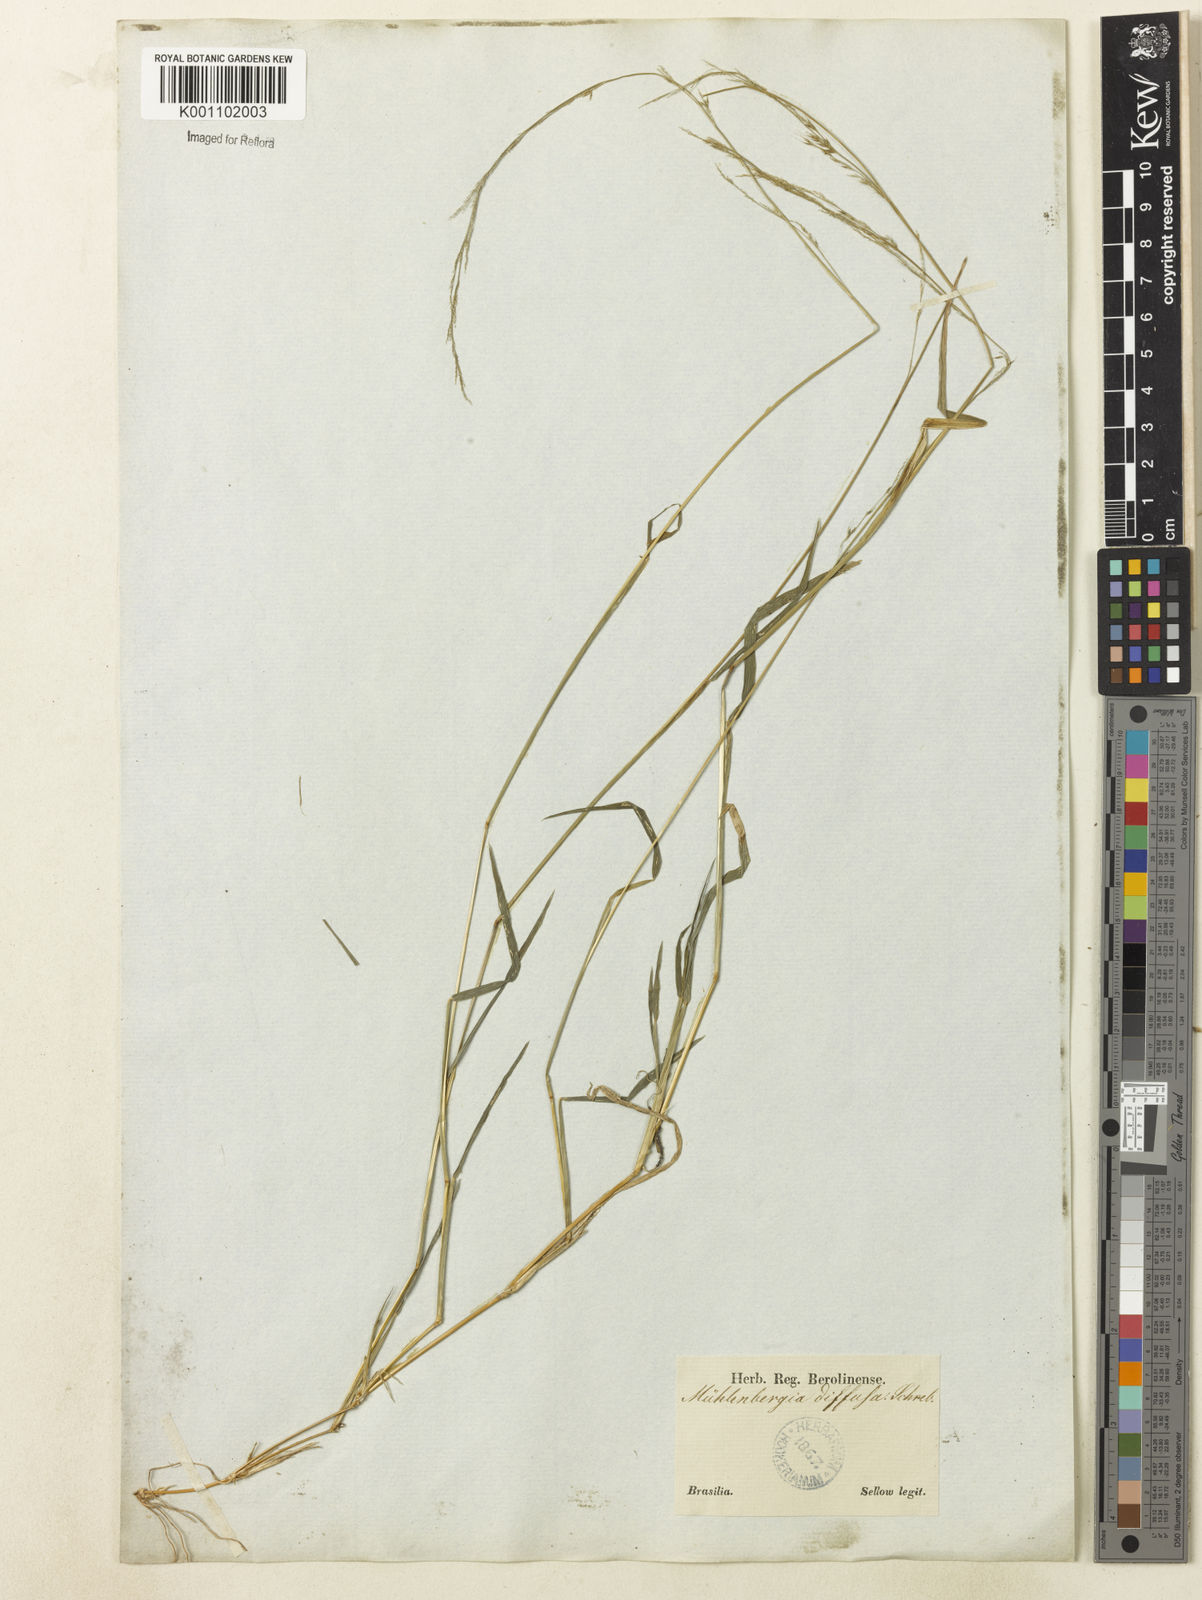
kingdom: Plantae
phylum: Tracheophyta
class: Liliopsida
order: Poales
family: Poaceae
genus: Muhlenbergia
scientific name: Muhlenbergia schreberi
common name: Nimblewill
